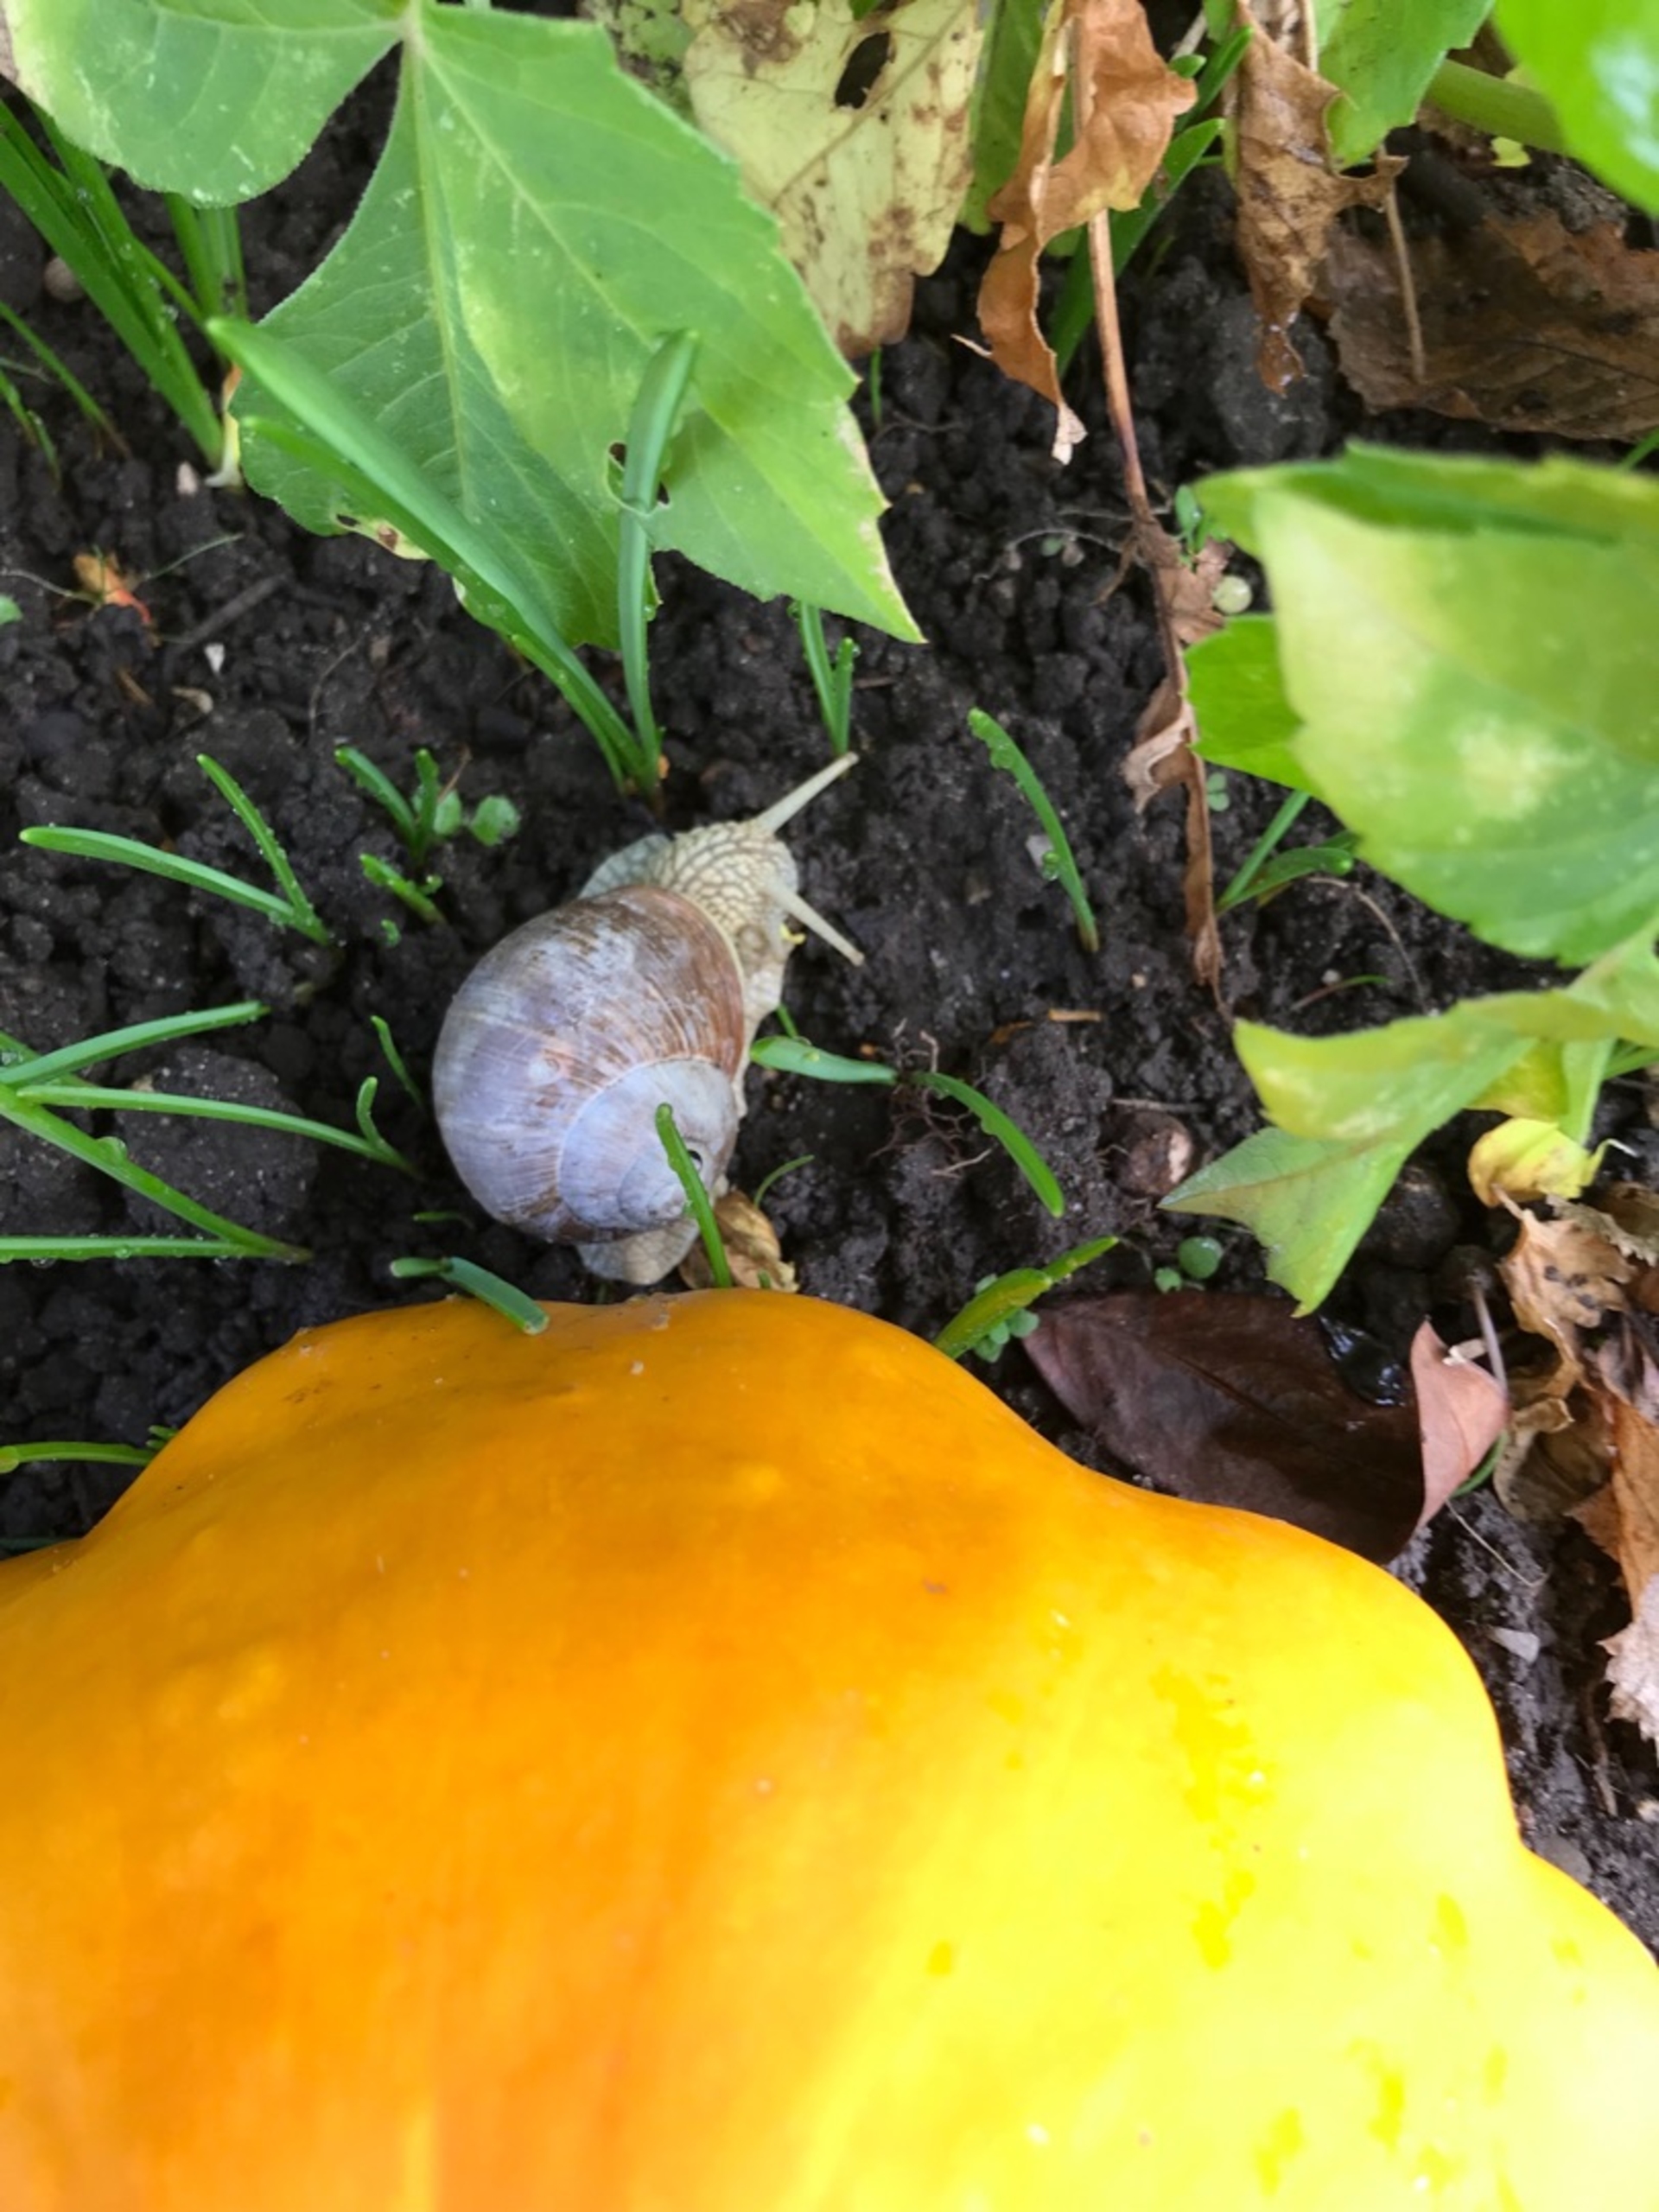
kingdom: Animalia
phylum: Mollusca
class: Gastropoda
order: Stylommatophora
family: Helicidae
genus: Helix
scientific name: Helix pomatia
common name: Vinbjergsnegl
